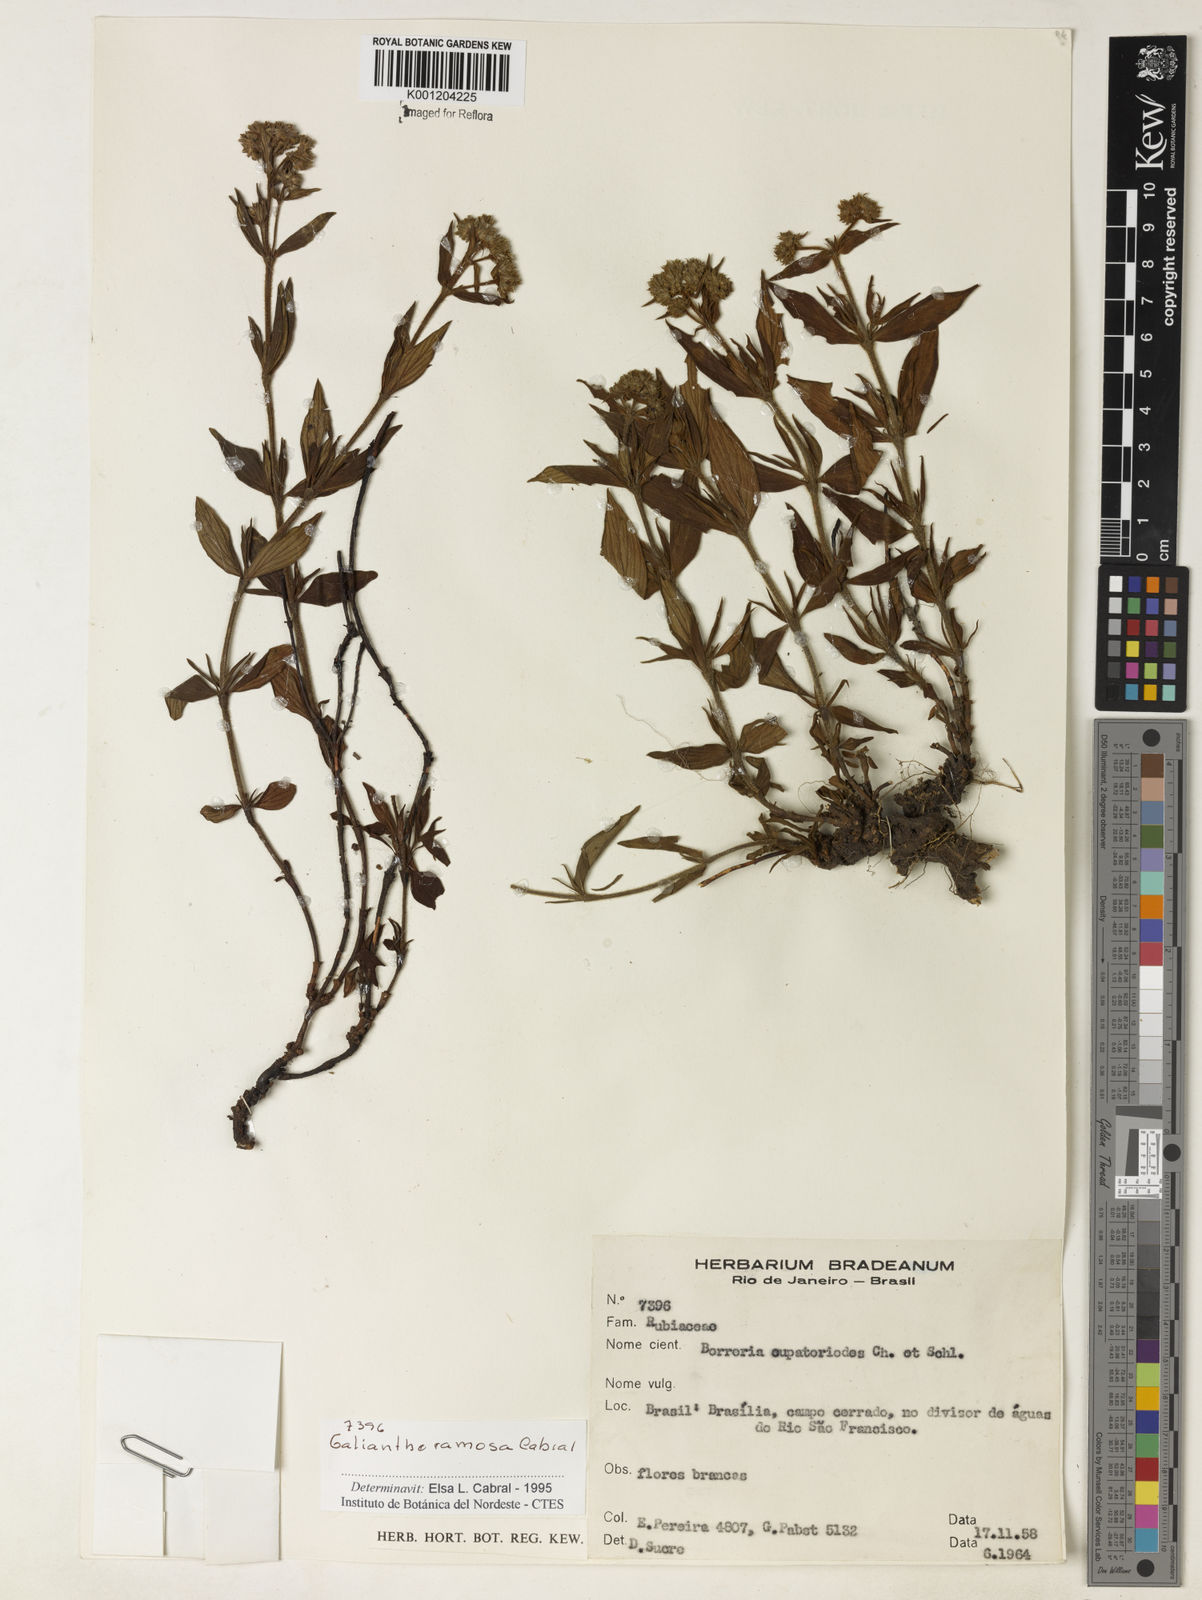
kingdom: Plantae
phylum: Tracheophyta
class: Magnoliopsida
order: Gentianales
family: Rubiaceae
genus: Galianthe
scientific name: Galianthe ramosa
